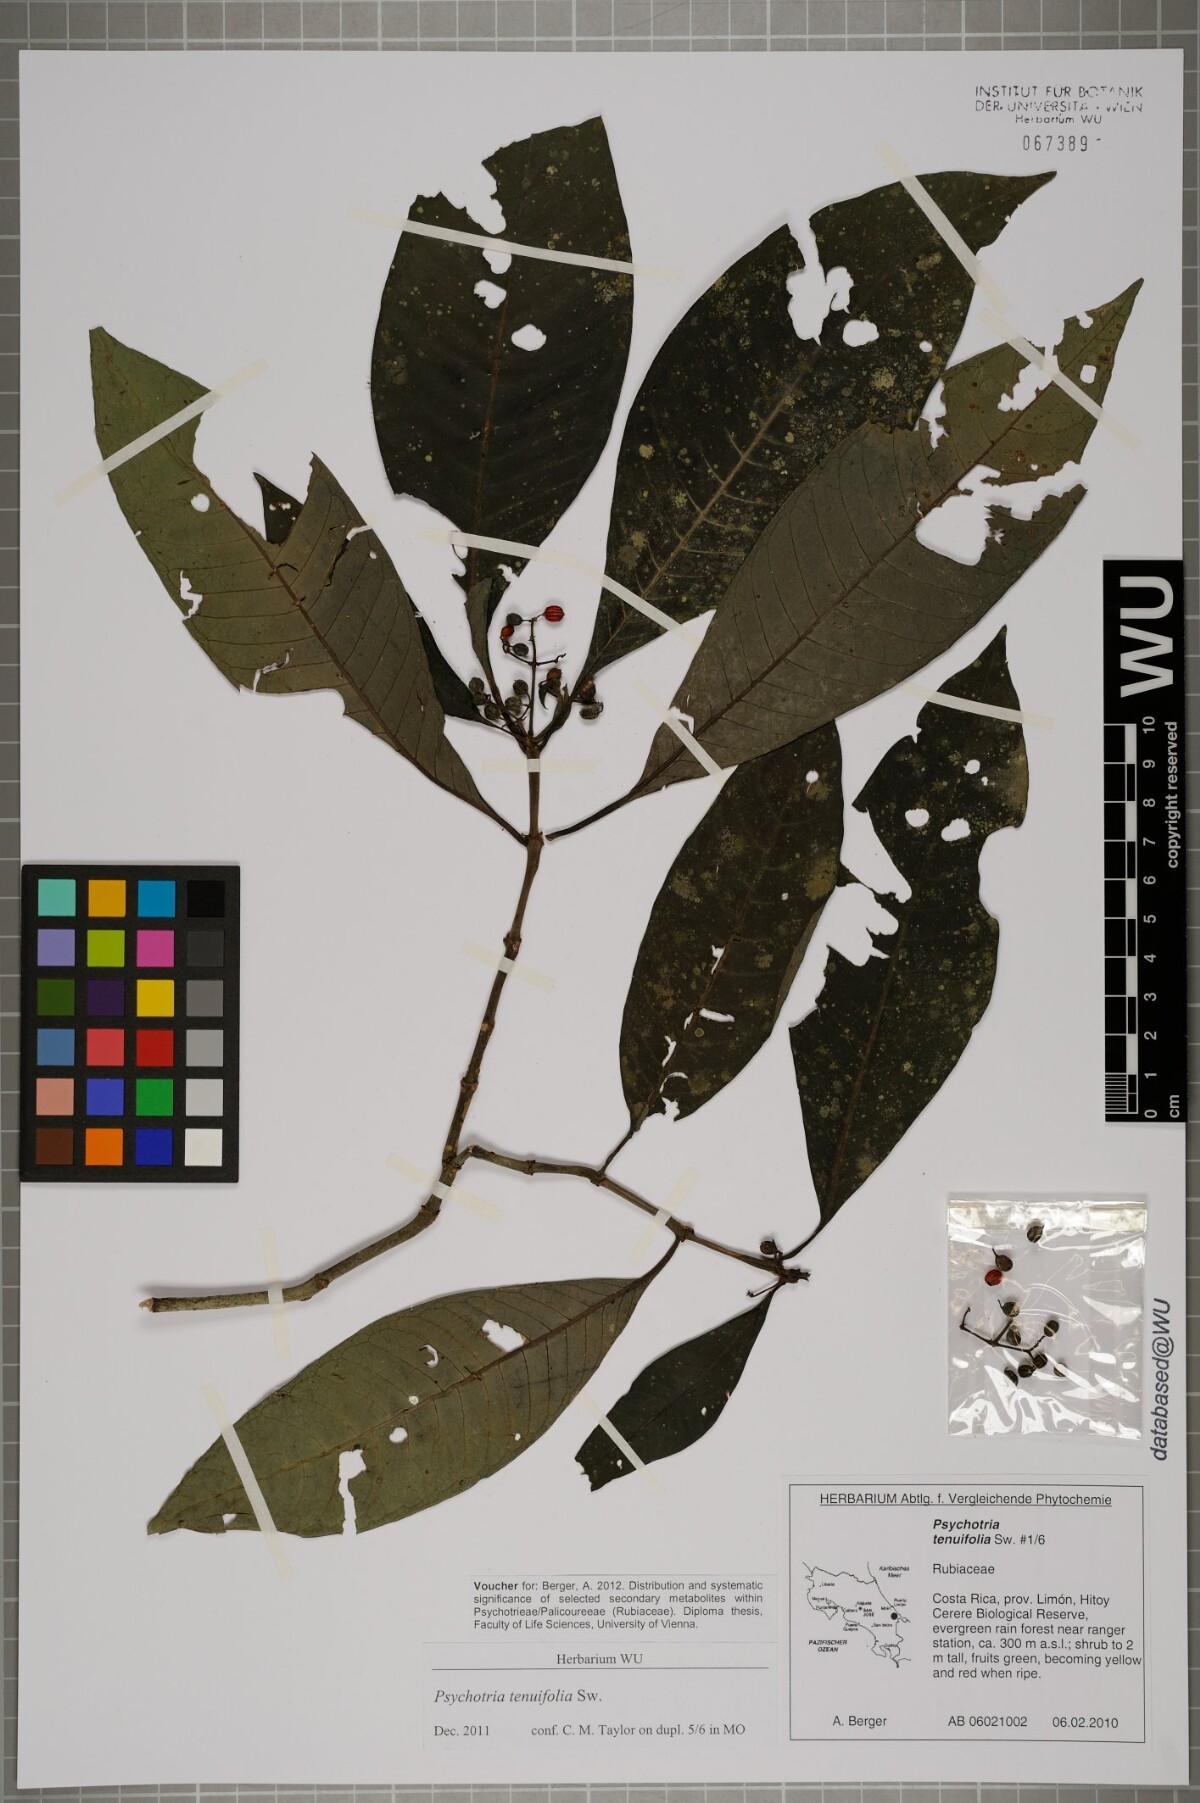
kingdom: Plantae
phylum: Tracheophyta
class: Magnoliopsida
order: Gentianales
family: Rubiaceae
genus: Psychotria
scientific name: Psychotria tenuifolia
